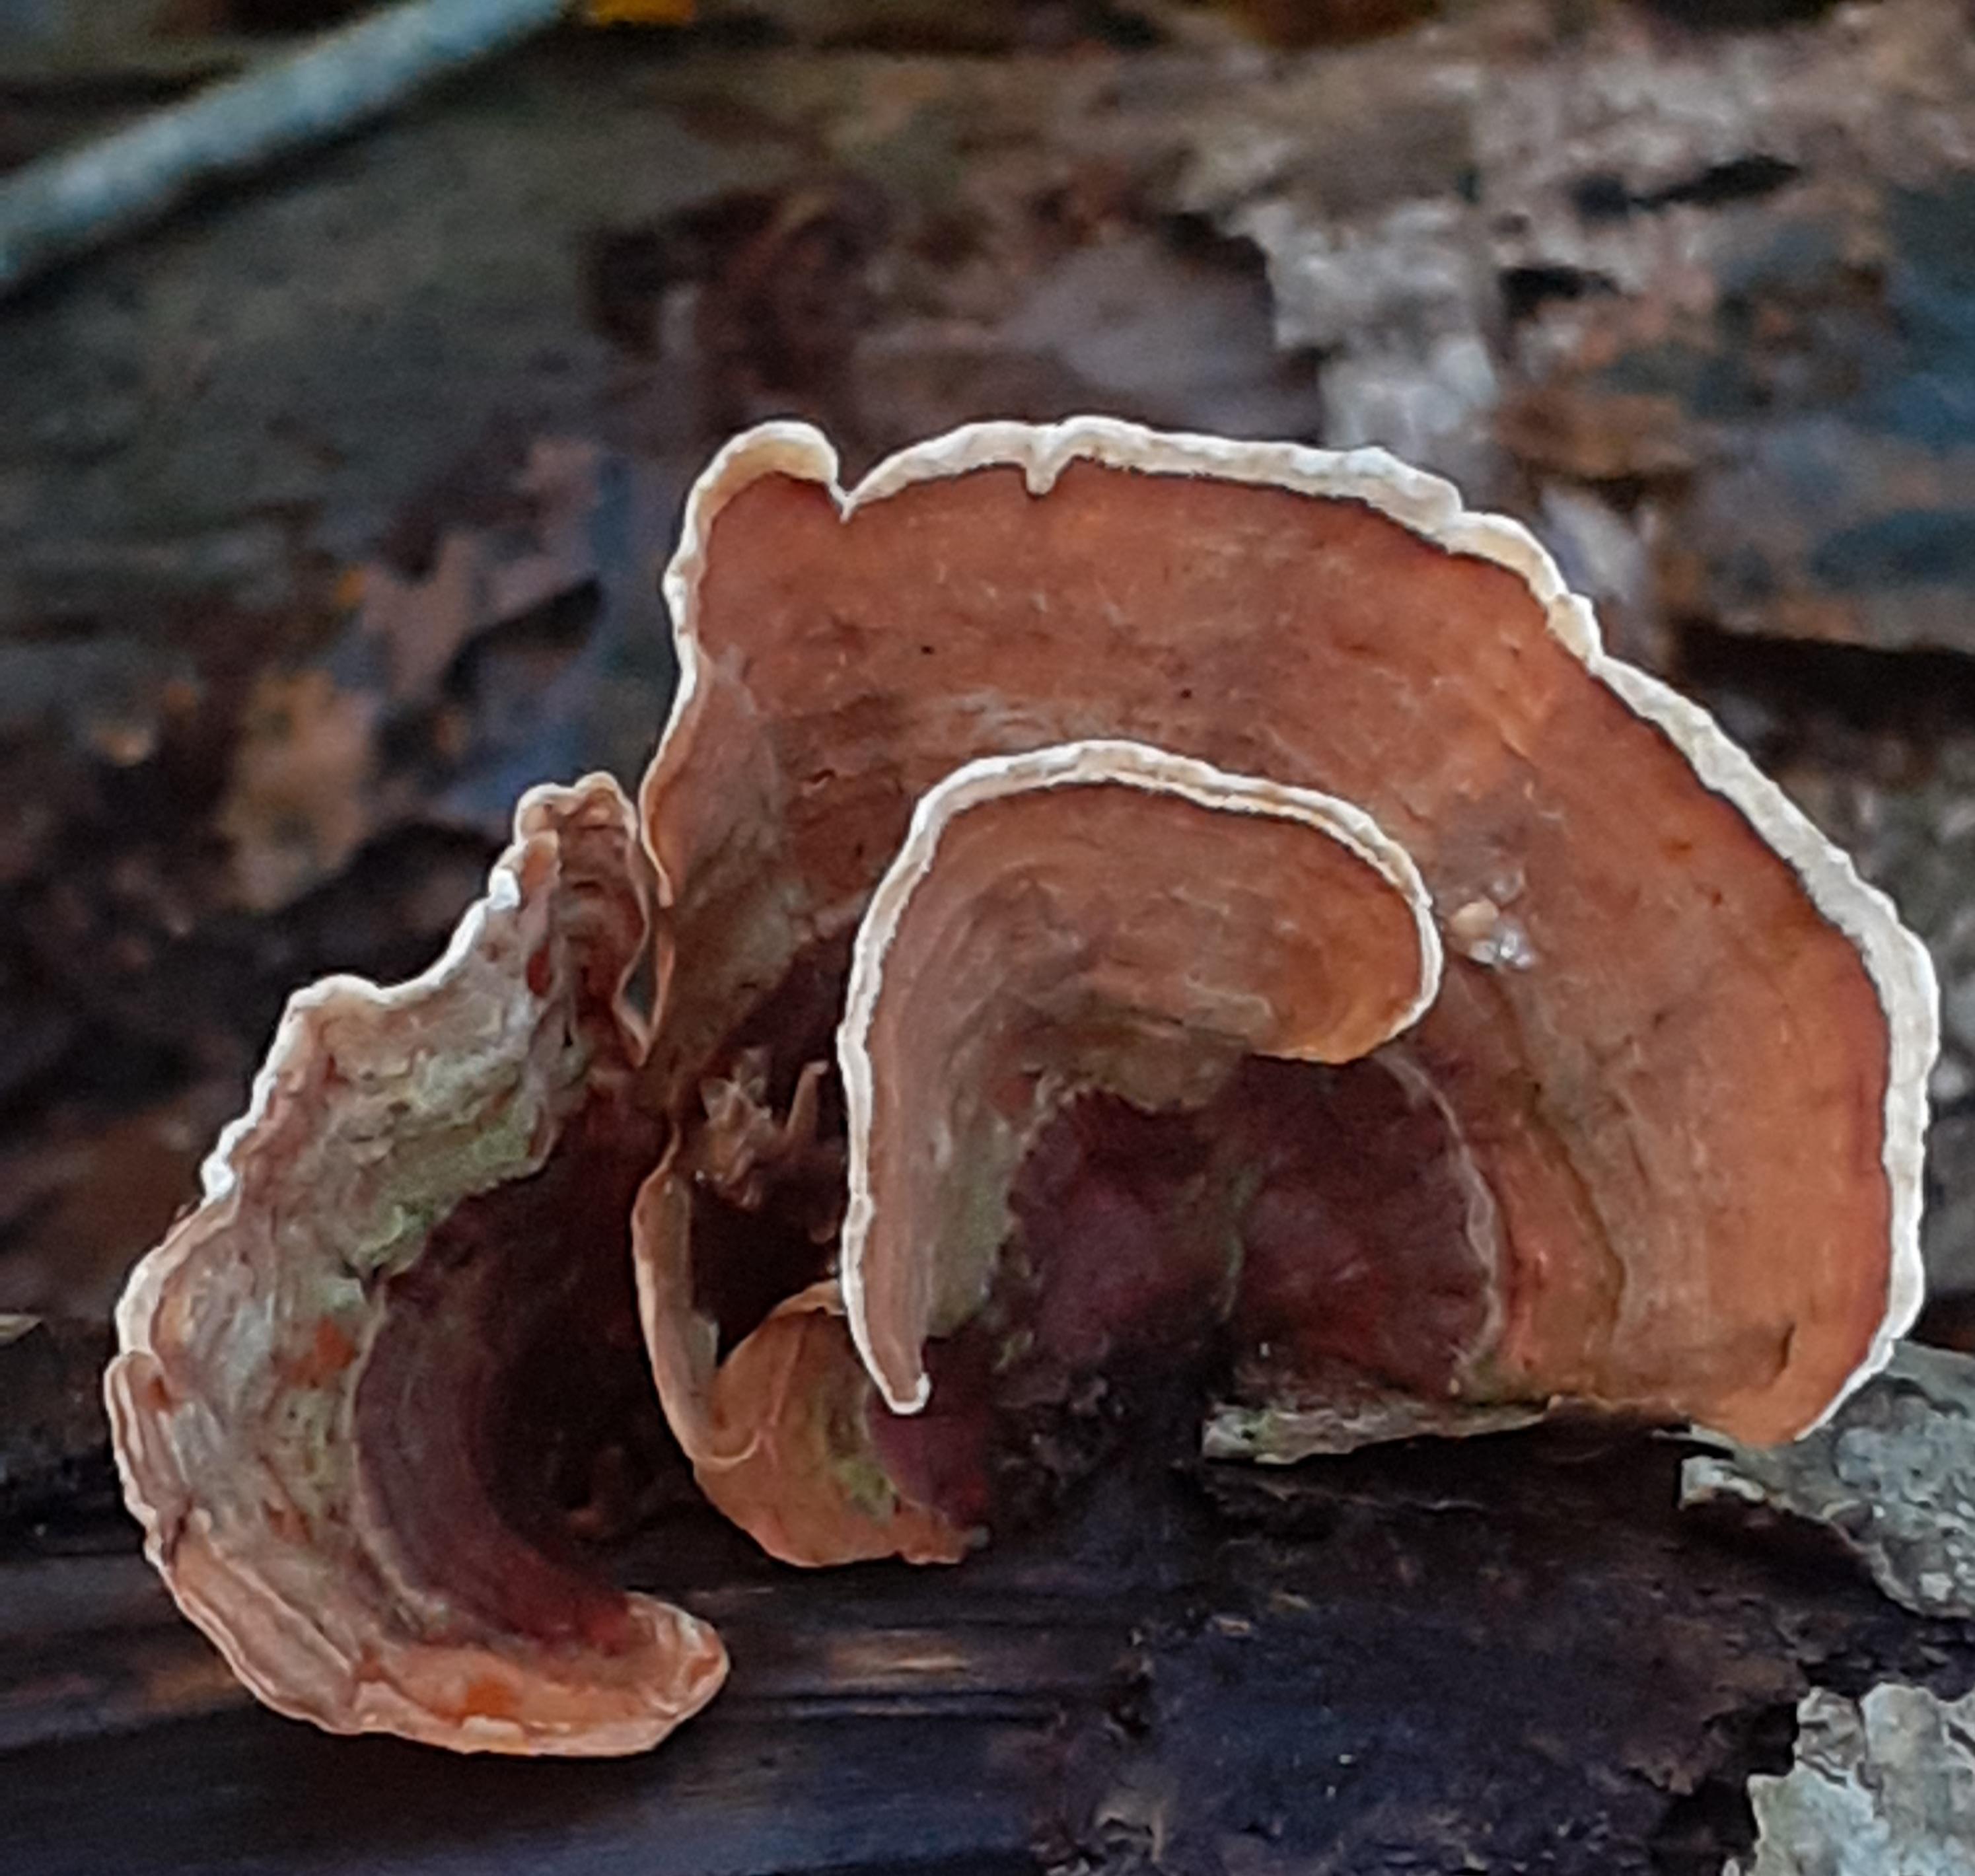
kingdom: Fungi
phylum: Basidiomycota
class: Agaricomycetes
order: Russulales
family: Stereaceae
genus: Stereum
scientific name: Stereum subtomentosum
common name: smuk lædersvamp
